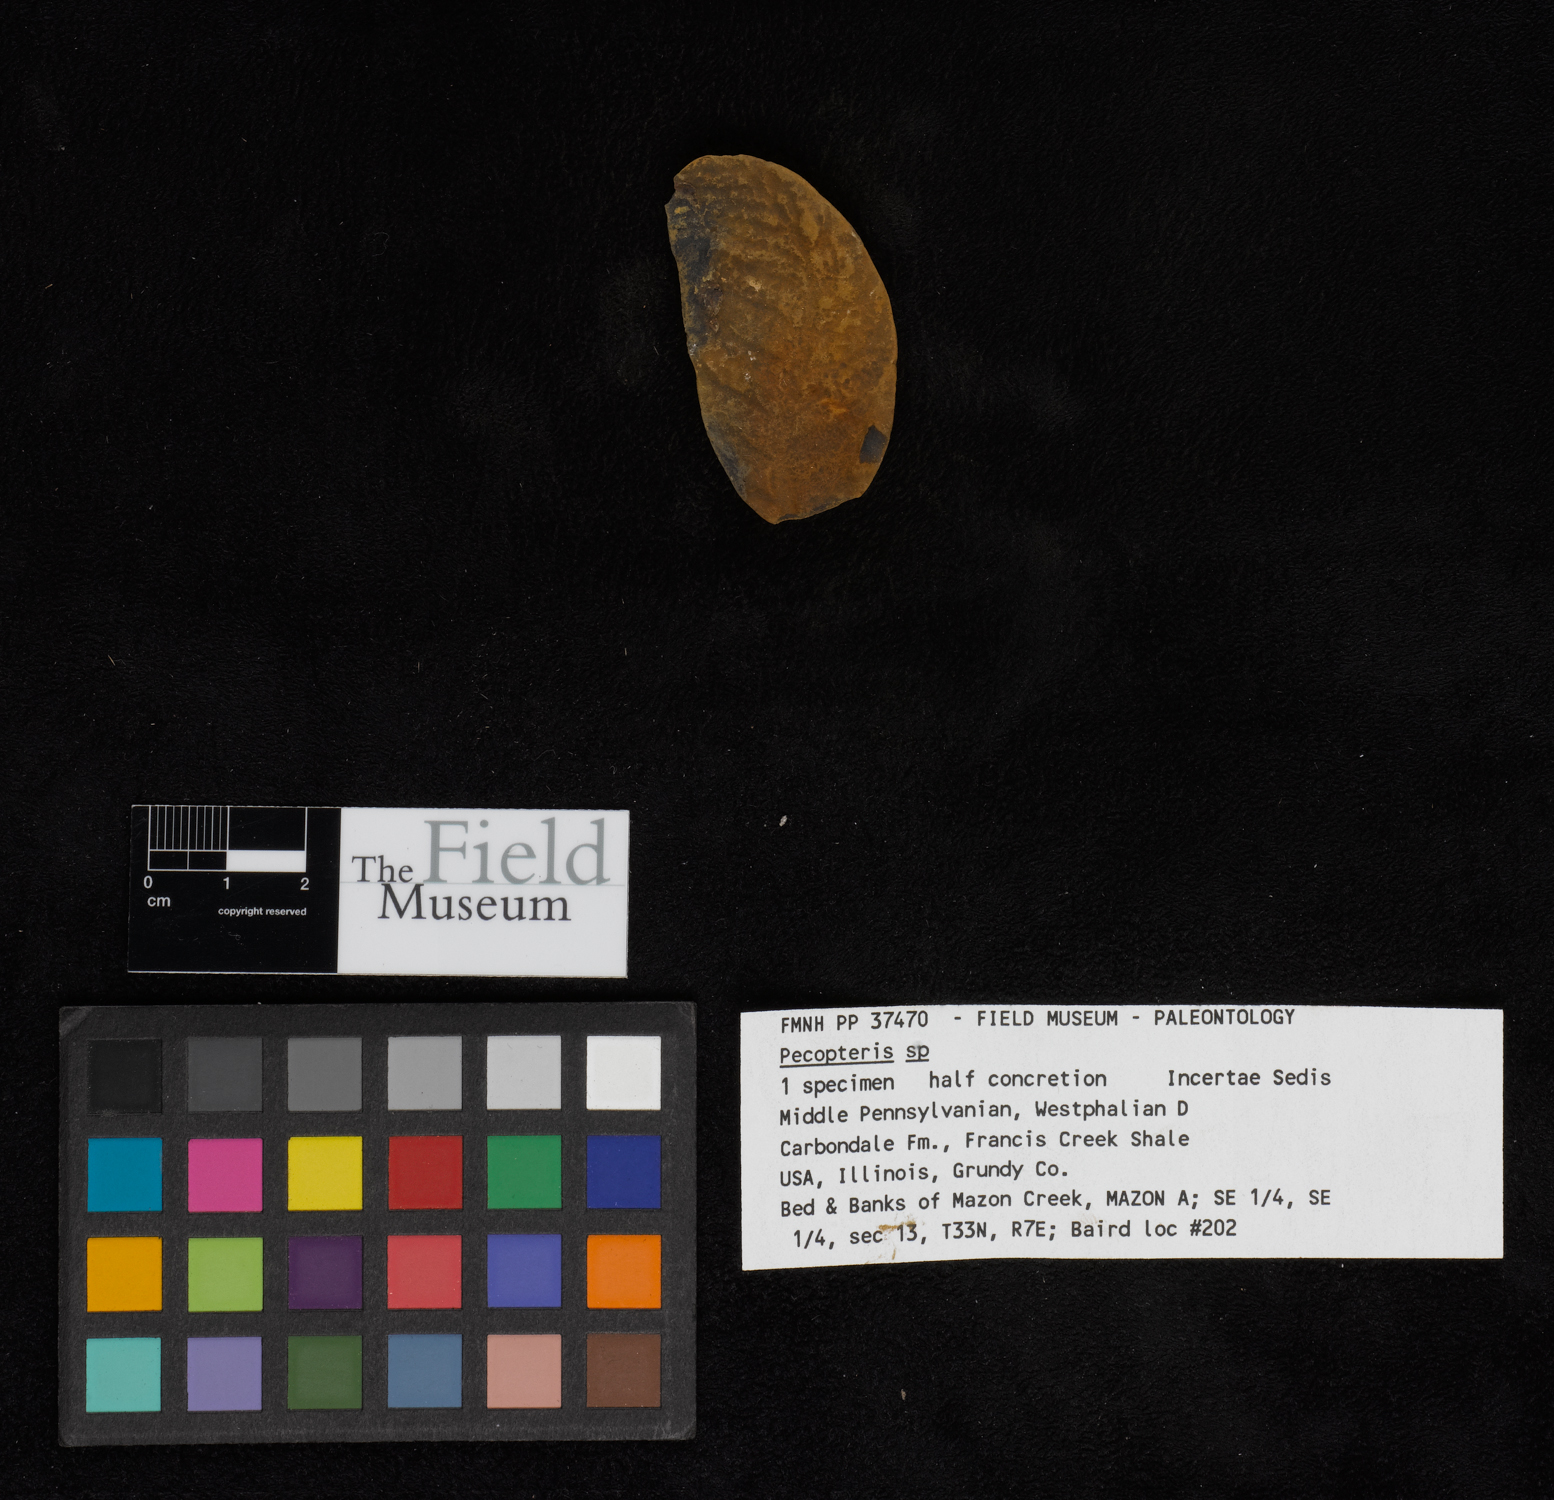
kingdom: Plantae
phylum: Tracheophyta
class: Polypodiopsida
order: Marattiales
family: Asterothecaceae
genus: Pecopteris
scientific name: Pecopteris
